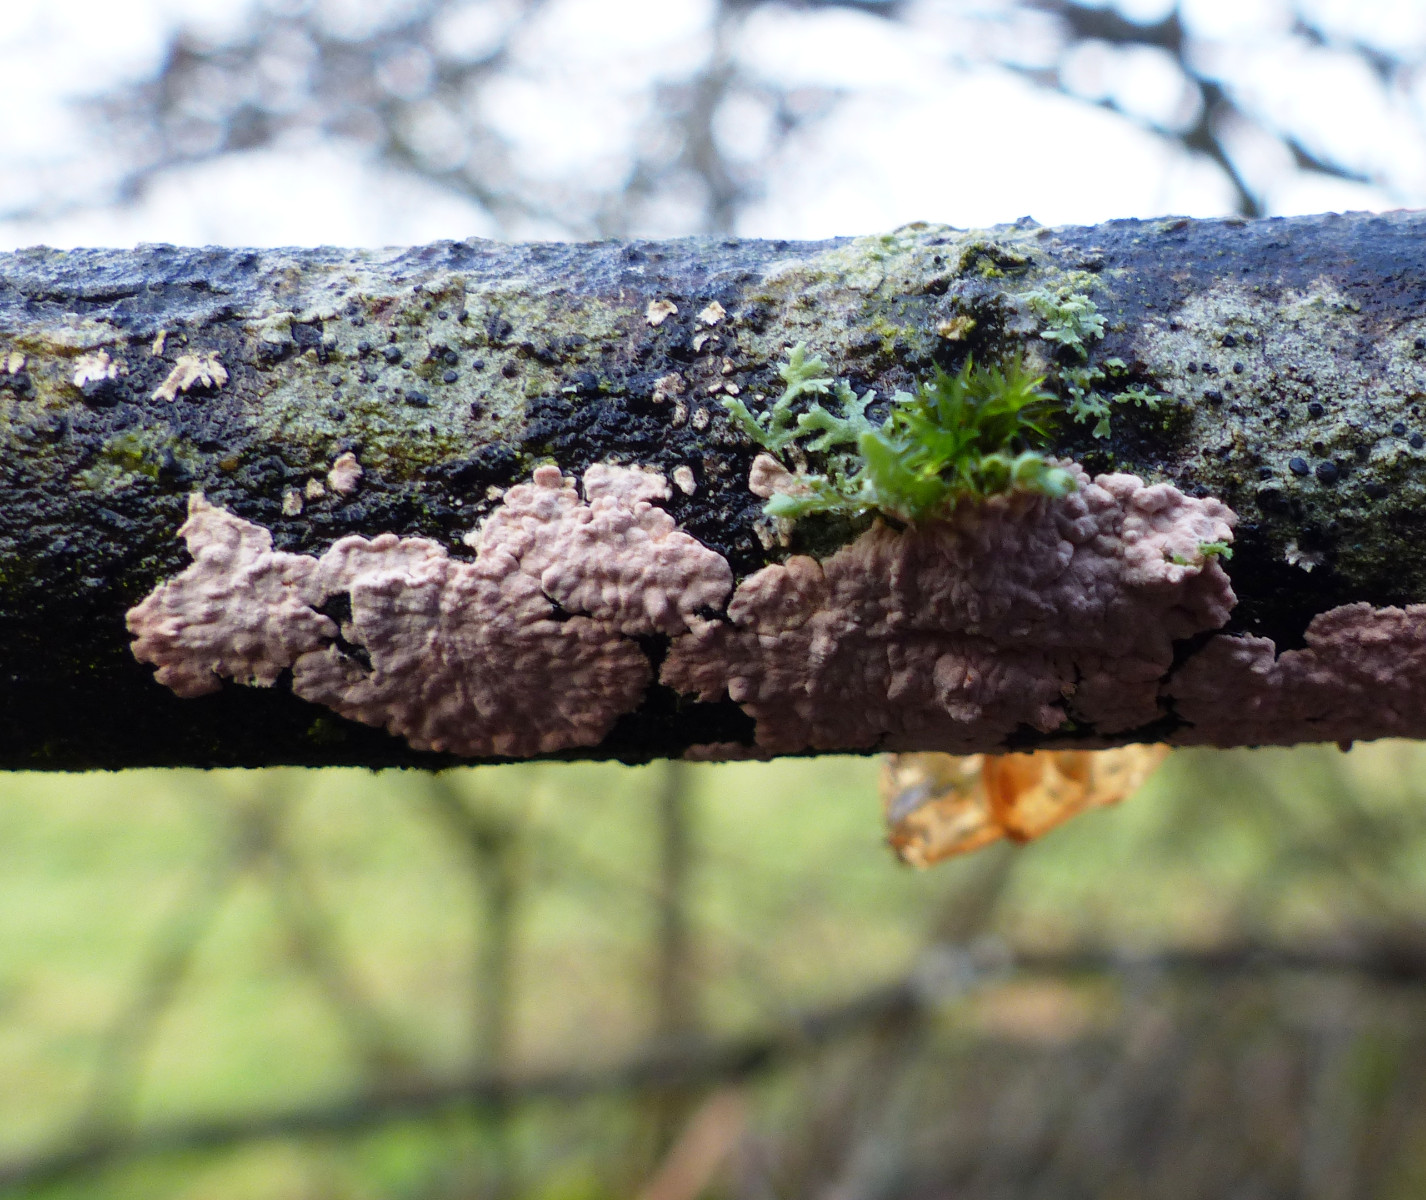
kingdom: Fungi
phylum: Basidiomycota
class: Agaricomycetes
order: Corticiales
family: Corticiaceae
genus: Corticium
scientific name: Corticium roseum
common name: rosa barkskind
